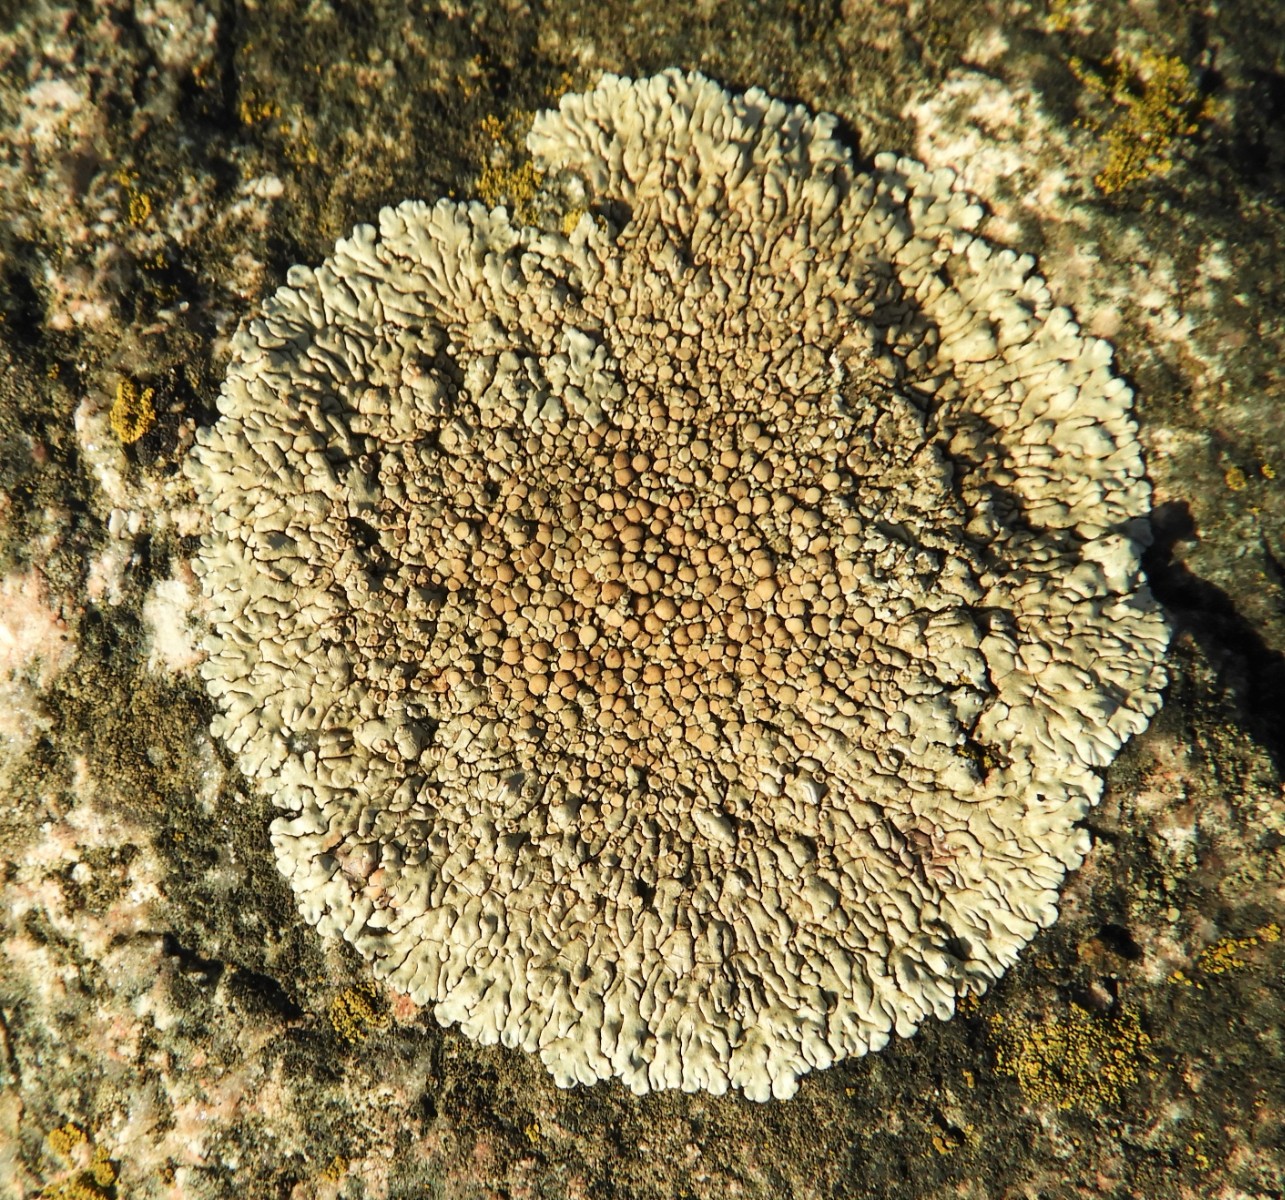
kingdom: Fungi
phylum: Ascomycota
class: Lecanoromycetes
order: Lecanorales
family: Lecanoraceae
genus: Protoparmeliopsis
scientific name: Protoparmeliopsis muralis
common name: randfliget kantskivelav
